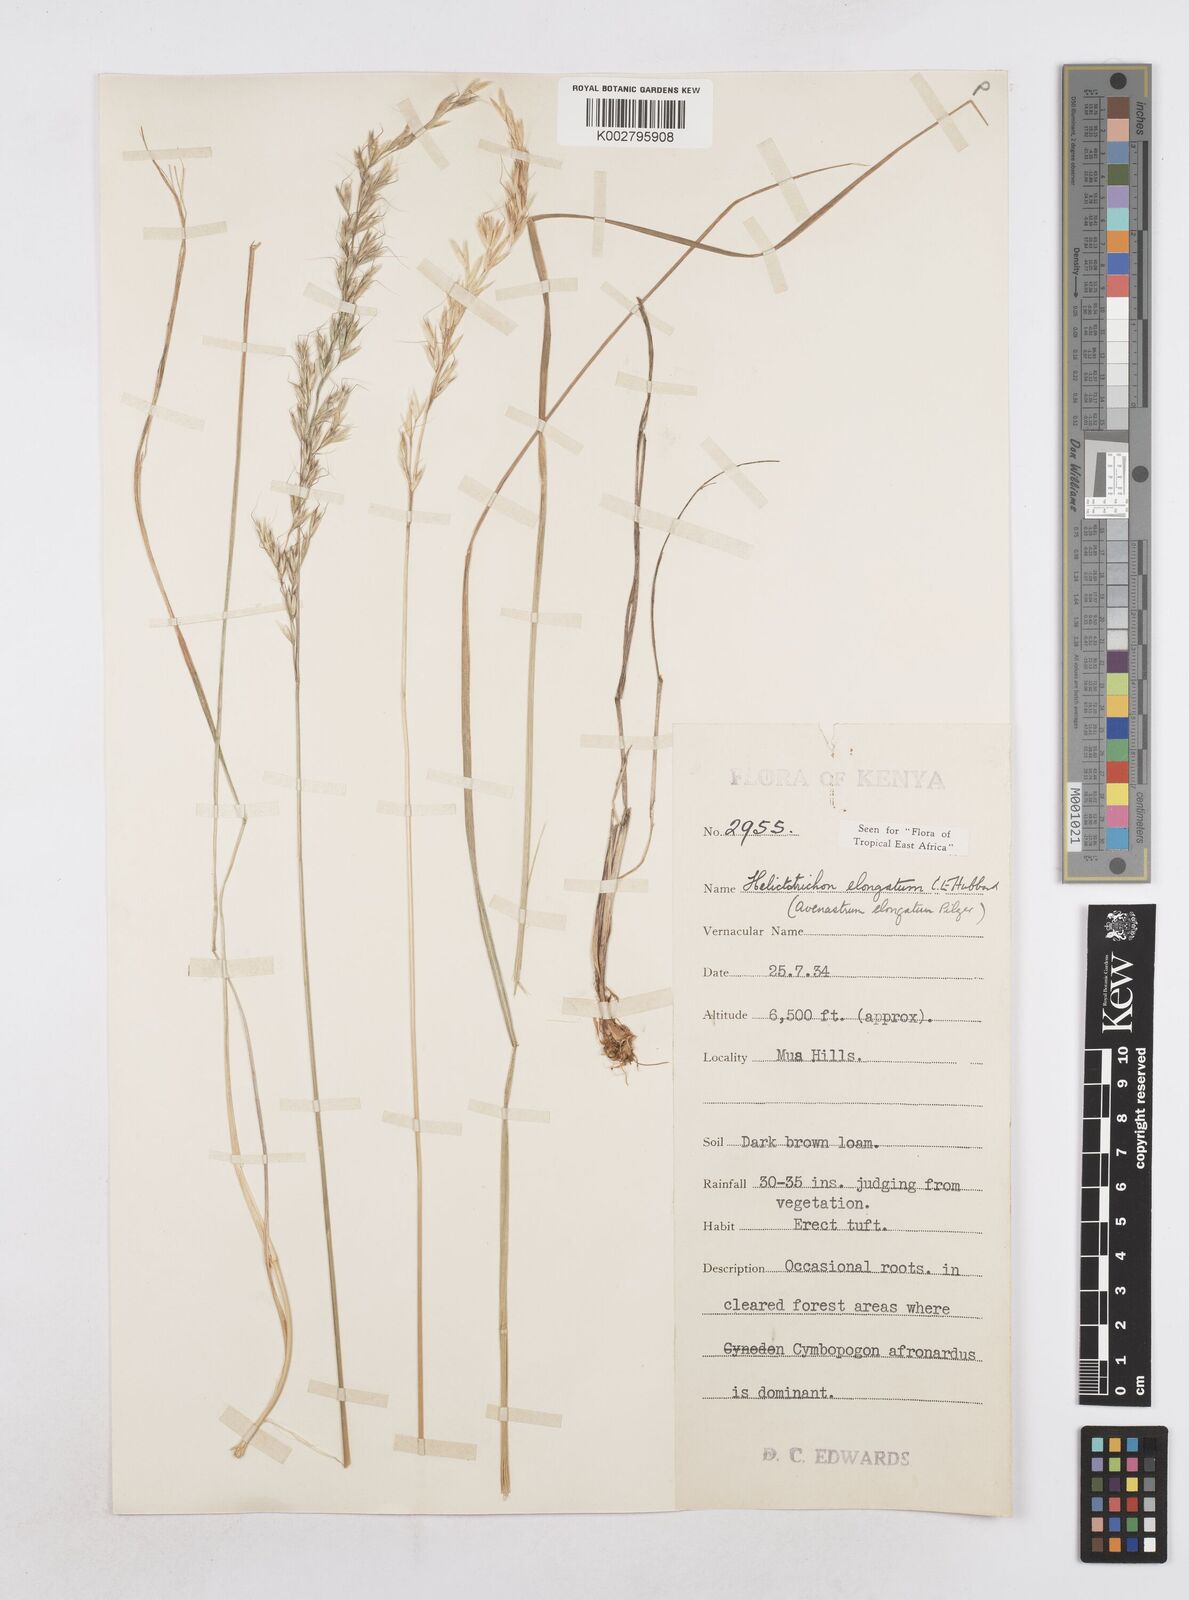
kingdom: Plantae
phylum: Tracheophyta
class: Liliopsida
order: Poales
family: Poaceae
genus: Trisetopsis
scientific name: Trisetopsis elongata
